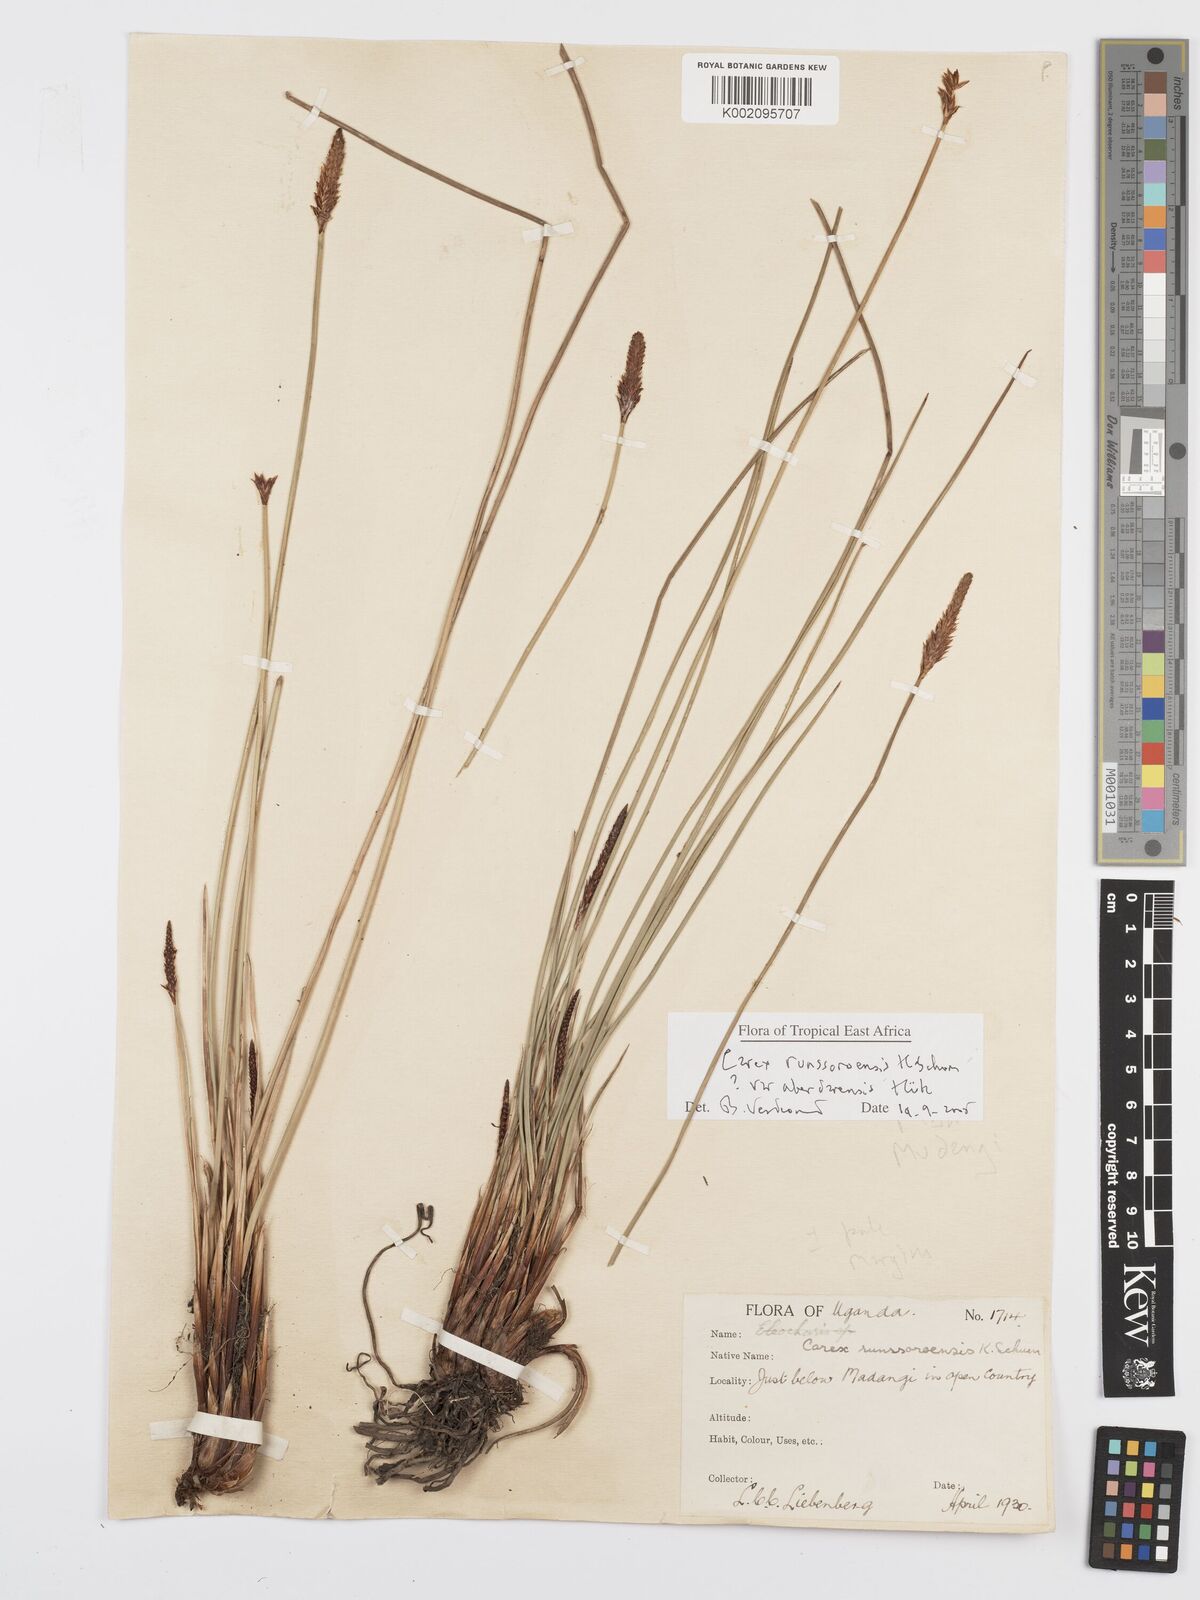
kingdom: Plantae
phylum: Tracheophyta
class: Liliopsida
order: Poales
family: Cyperaceae
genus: Carex
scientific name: Carex runssoroensis
